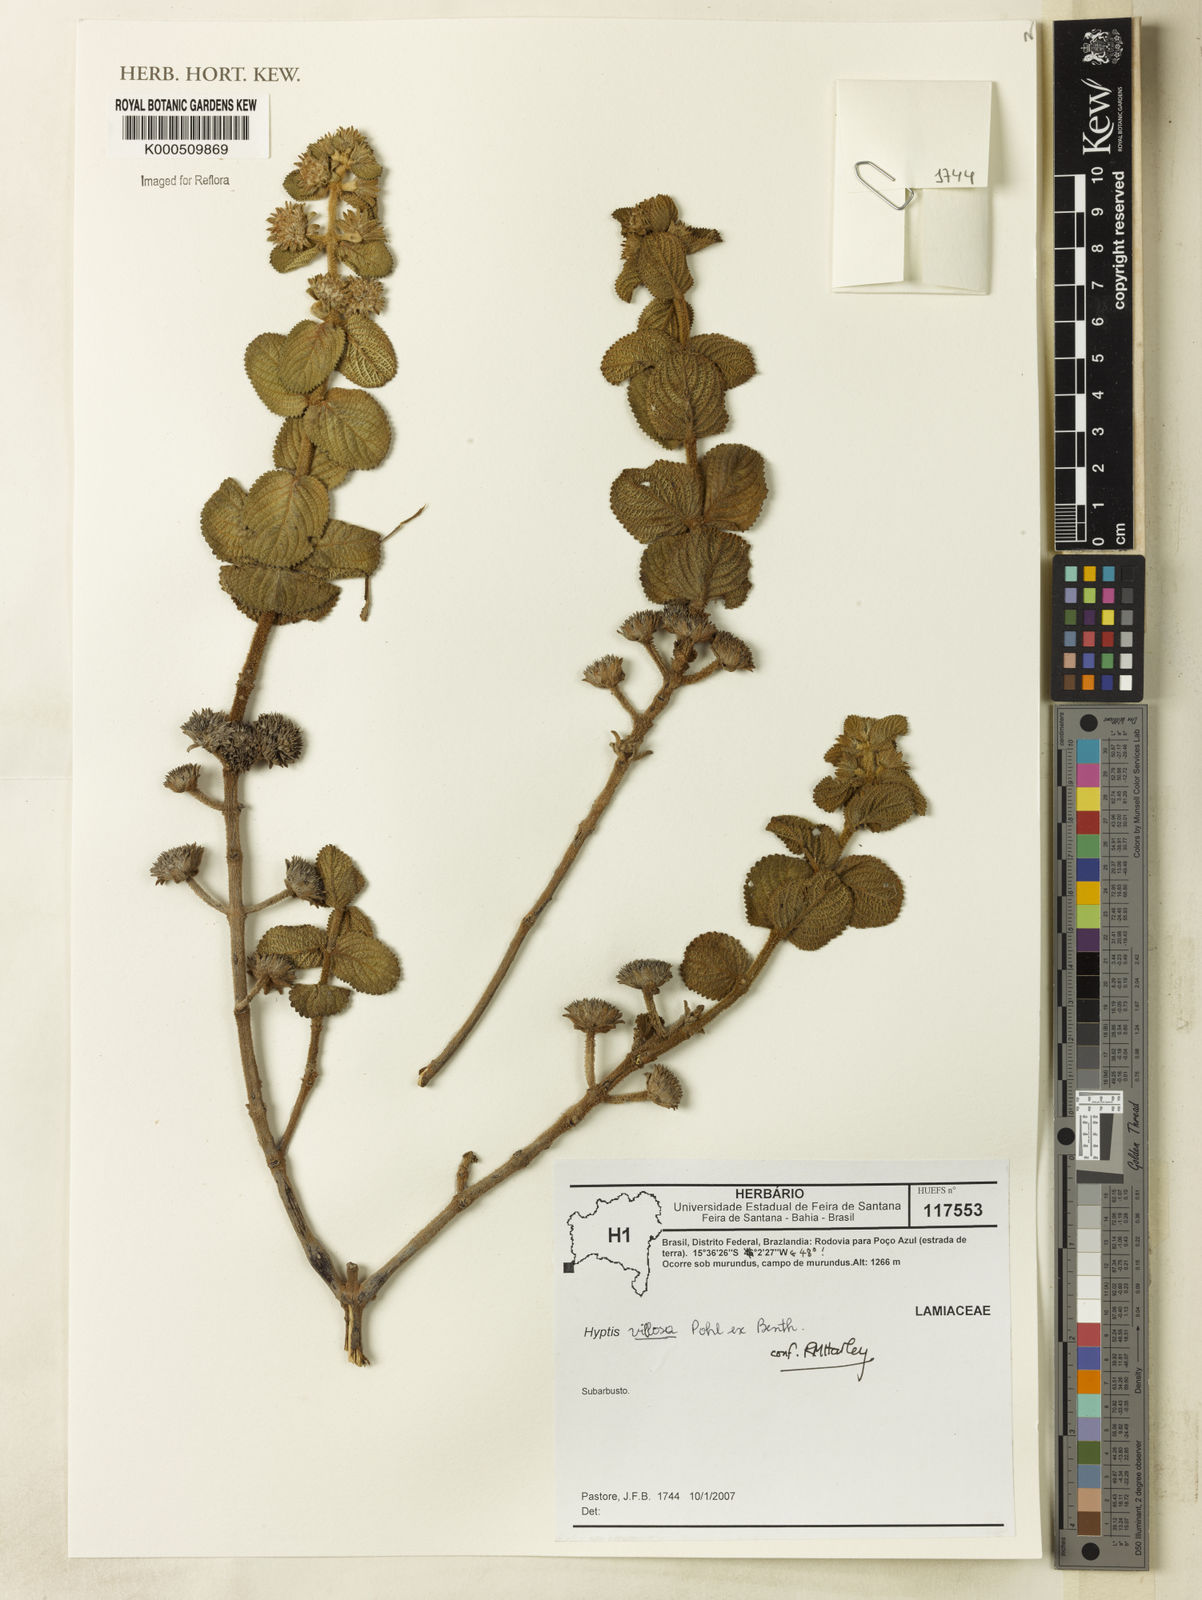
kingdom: Plantae
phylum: Tracheophyta
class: Magnoliopsida
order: Lamiales
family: Lamiaceae
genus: Hyptis
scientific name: Hyptis villosa
